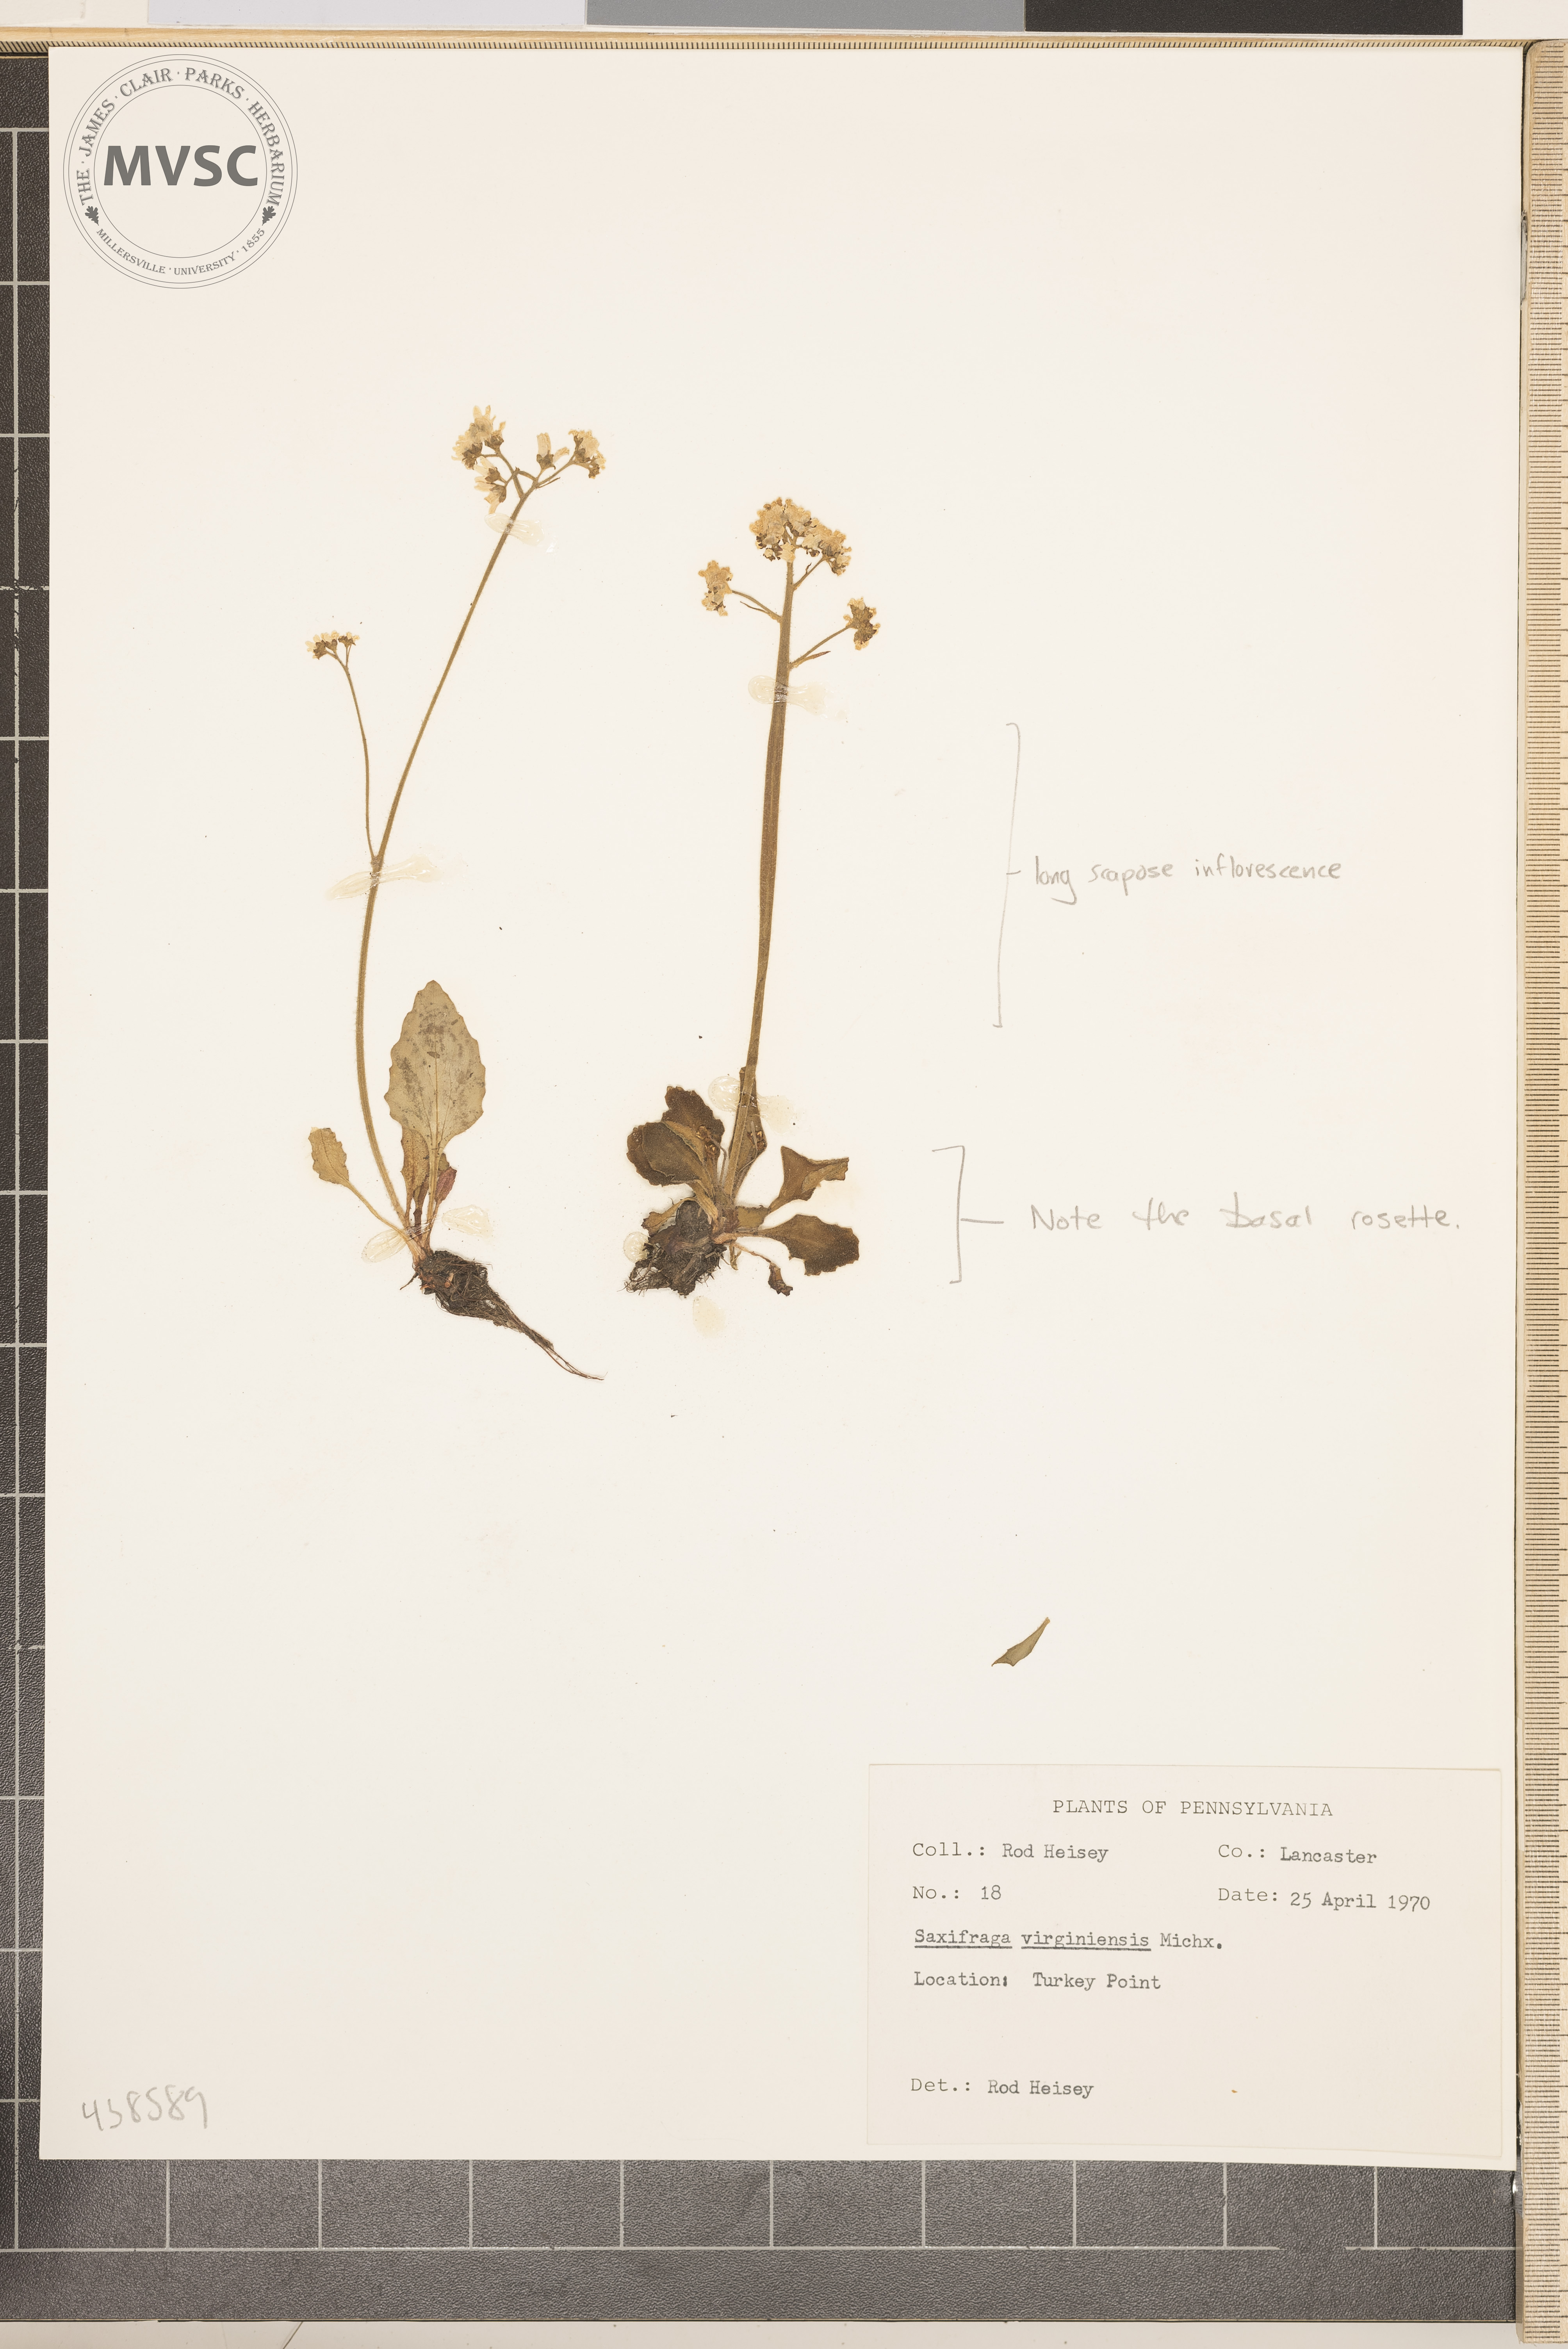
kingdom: Plantae
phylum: Tracheophyta
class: Magnoliopsida
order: Saxifragales
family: Saxifragaceae
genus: Micranthes
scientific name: Micranthes virginiensis
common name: Early saxifrage
